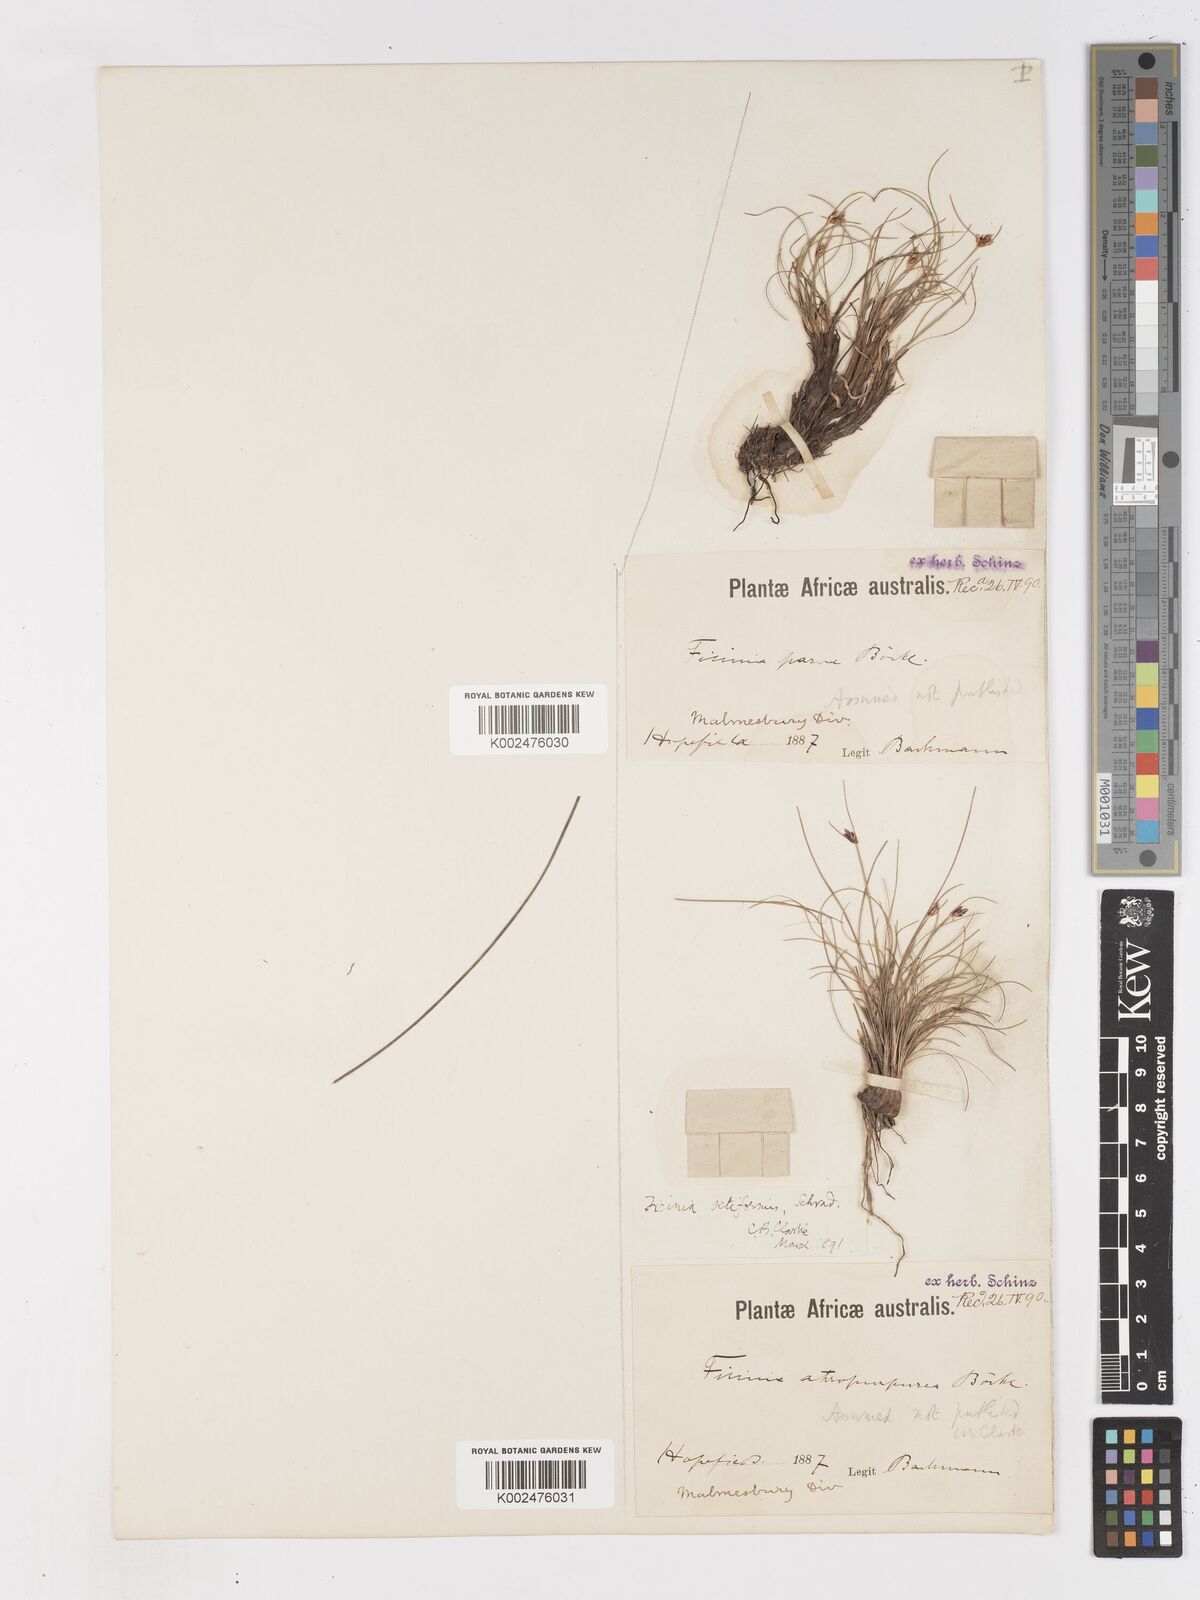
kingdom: Plantae
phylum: Tracheophyta
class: Liliopsida
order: Poales
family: Cyperaceae
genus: Ficinia
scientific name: Ficinia indica
